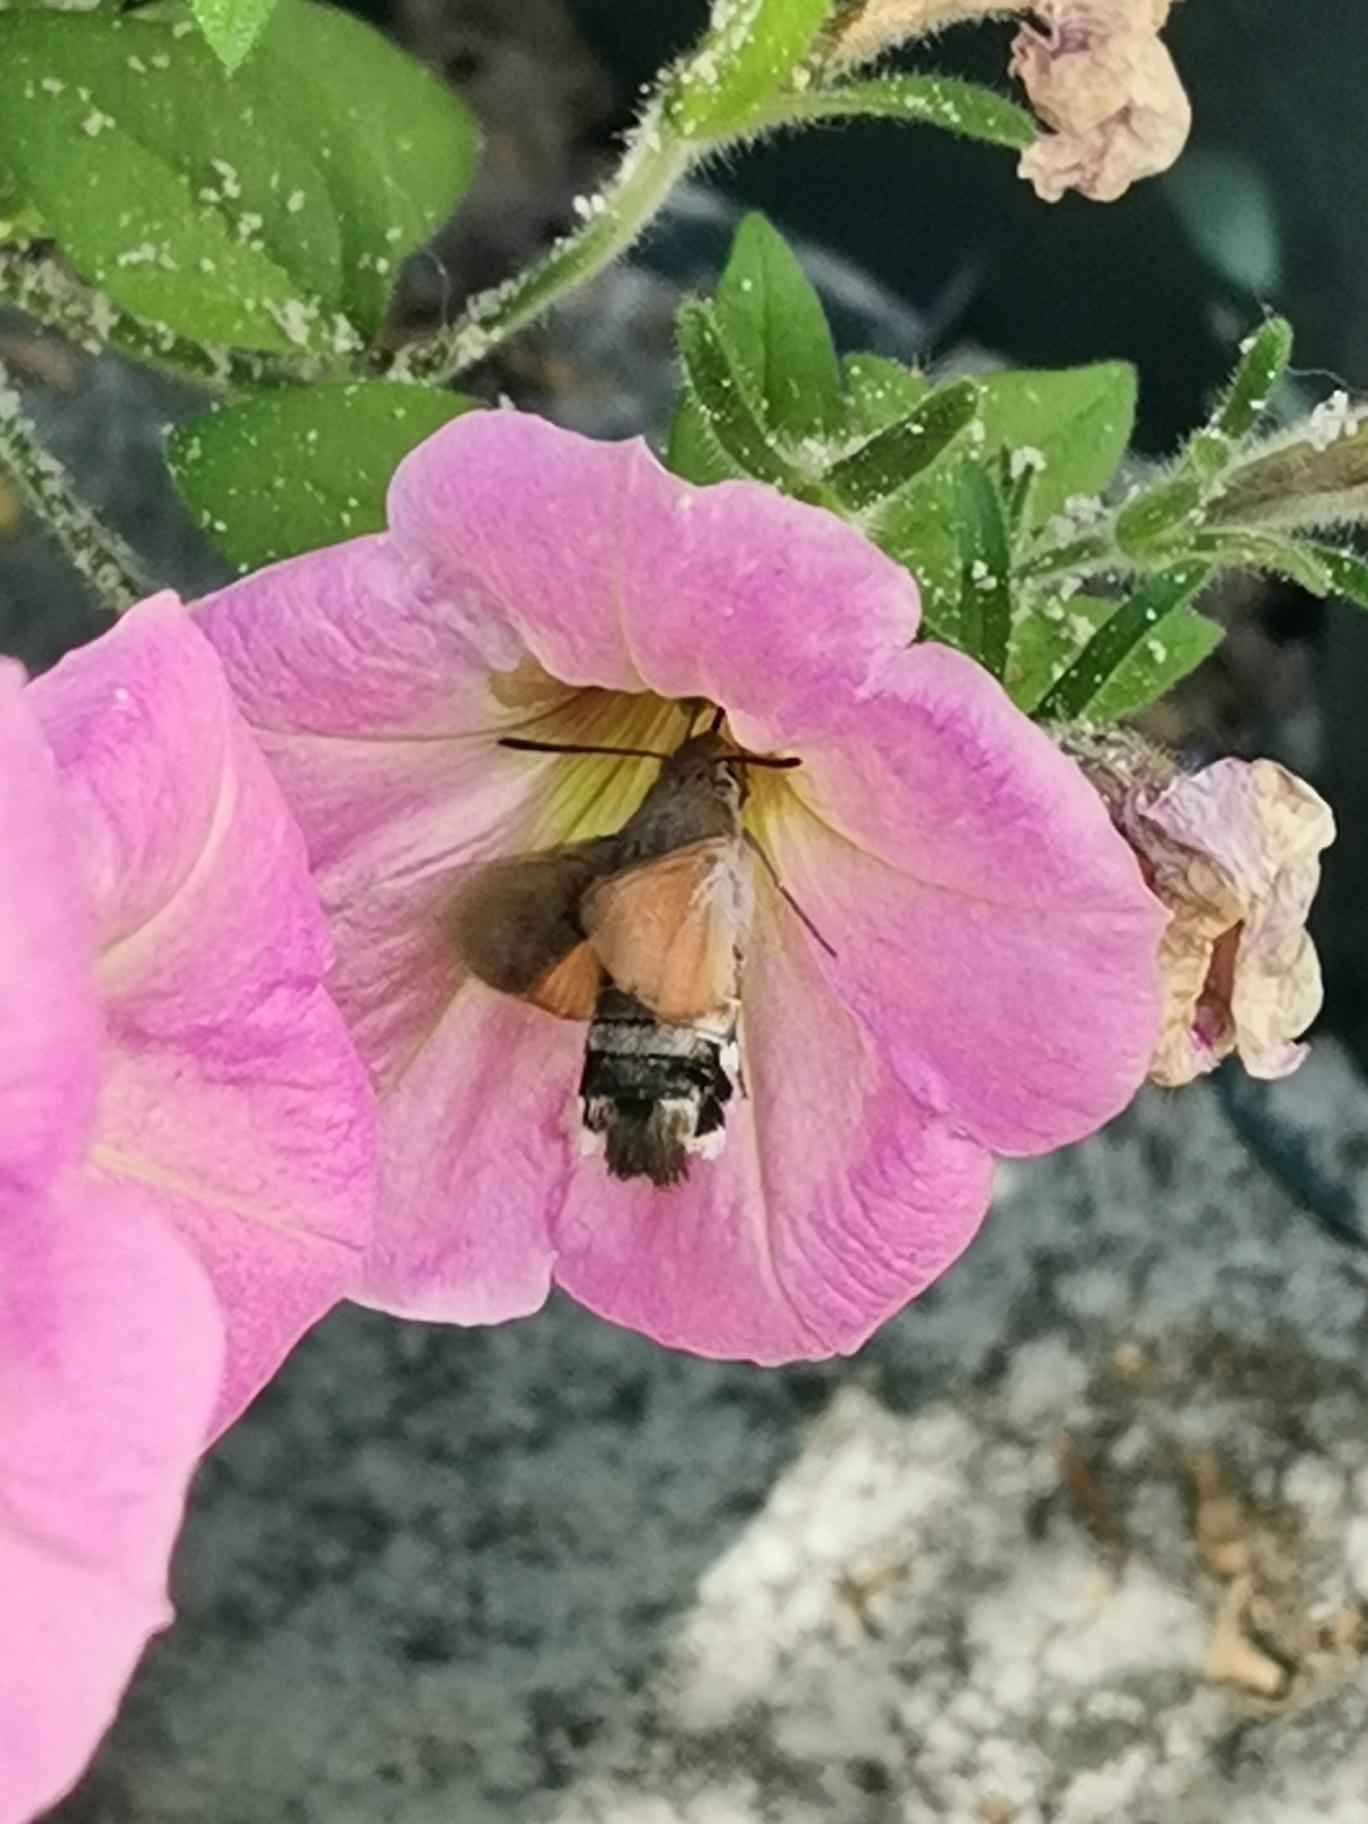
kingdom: Animalia
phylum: Arthropoda
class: Insecta
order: Lepidoptera
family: Sphingidae
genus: Macroglossum
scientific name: Macroglossum stellatarum
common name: Duehale
